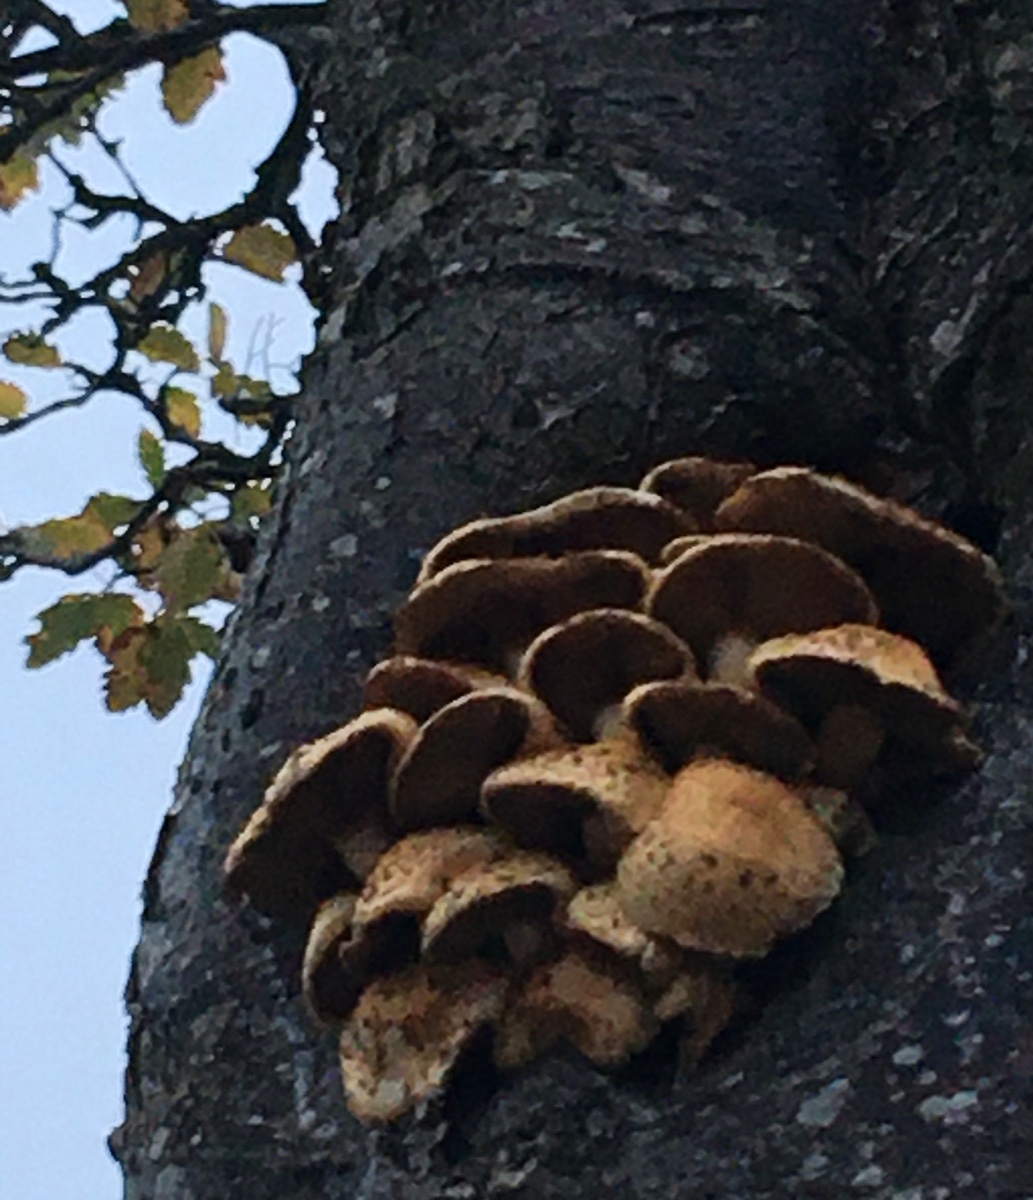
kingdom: Fungi
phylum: Basidiomycota
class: Agaricomycetes
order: Agaricales
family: Strophariaceae
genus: Pholiota
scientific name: Pholiota squarrosa
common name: krumskællet skælhat
